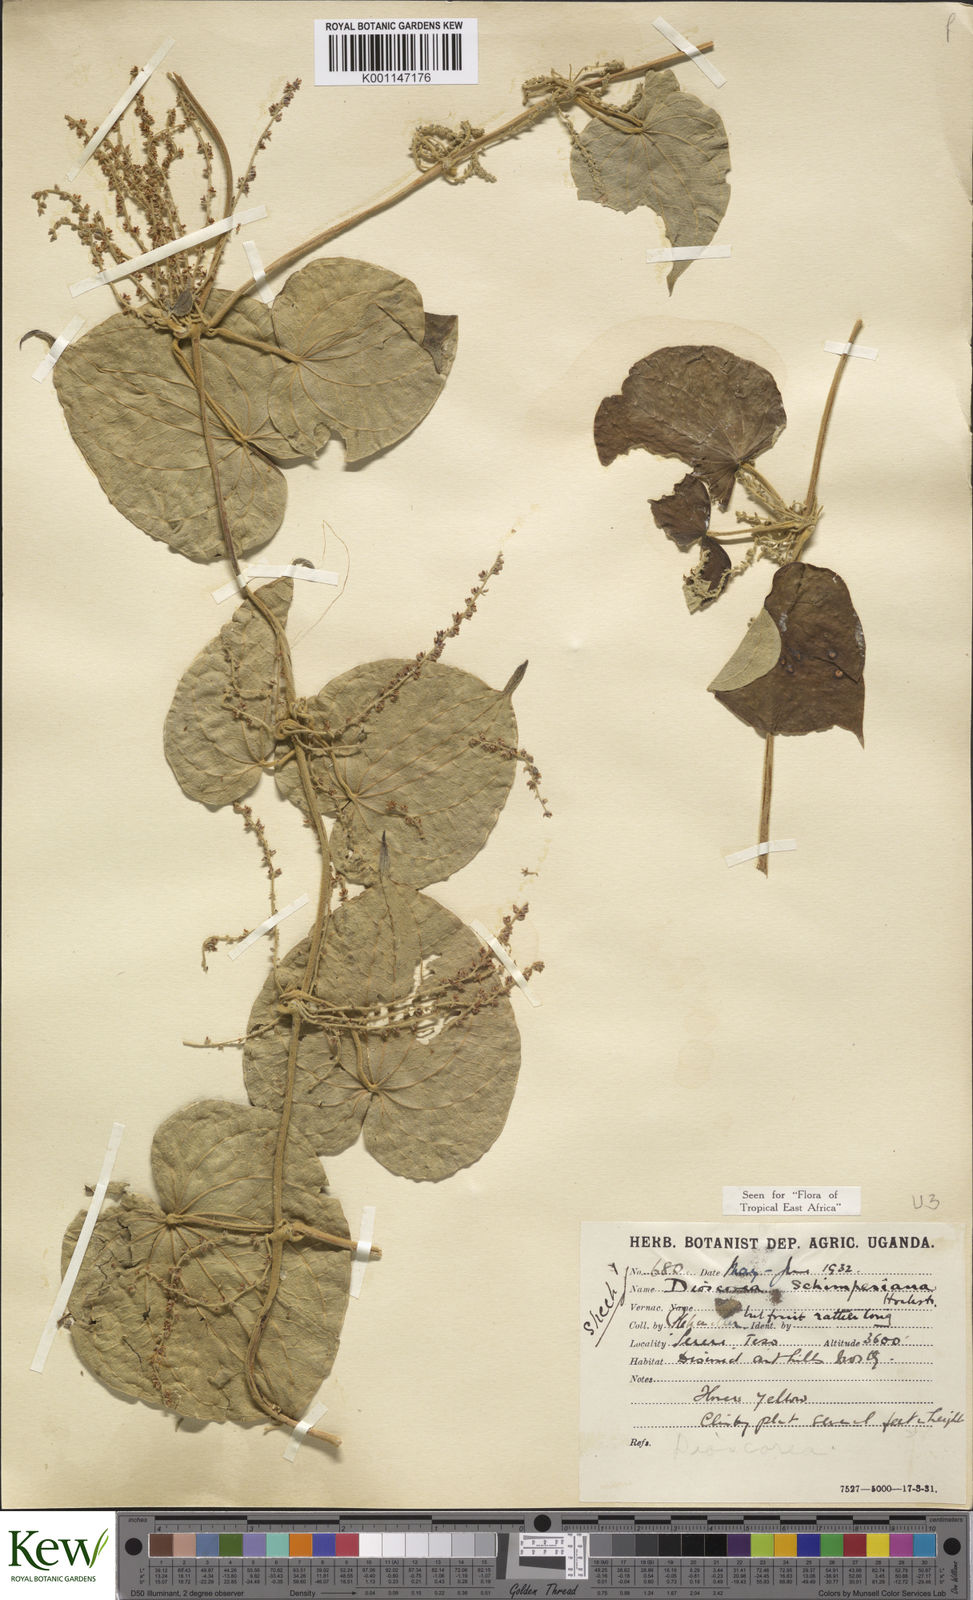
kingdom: Plantae
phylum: Tracheophyta
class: Liliopsida
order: Dioscoreales
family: Dioscoreaceae
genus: Dioscorea
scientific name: Dioscorea schimperiana
